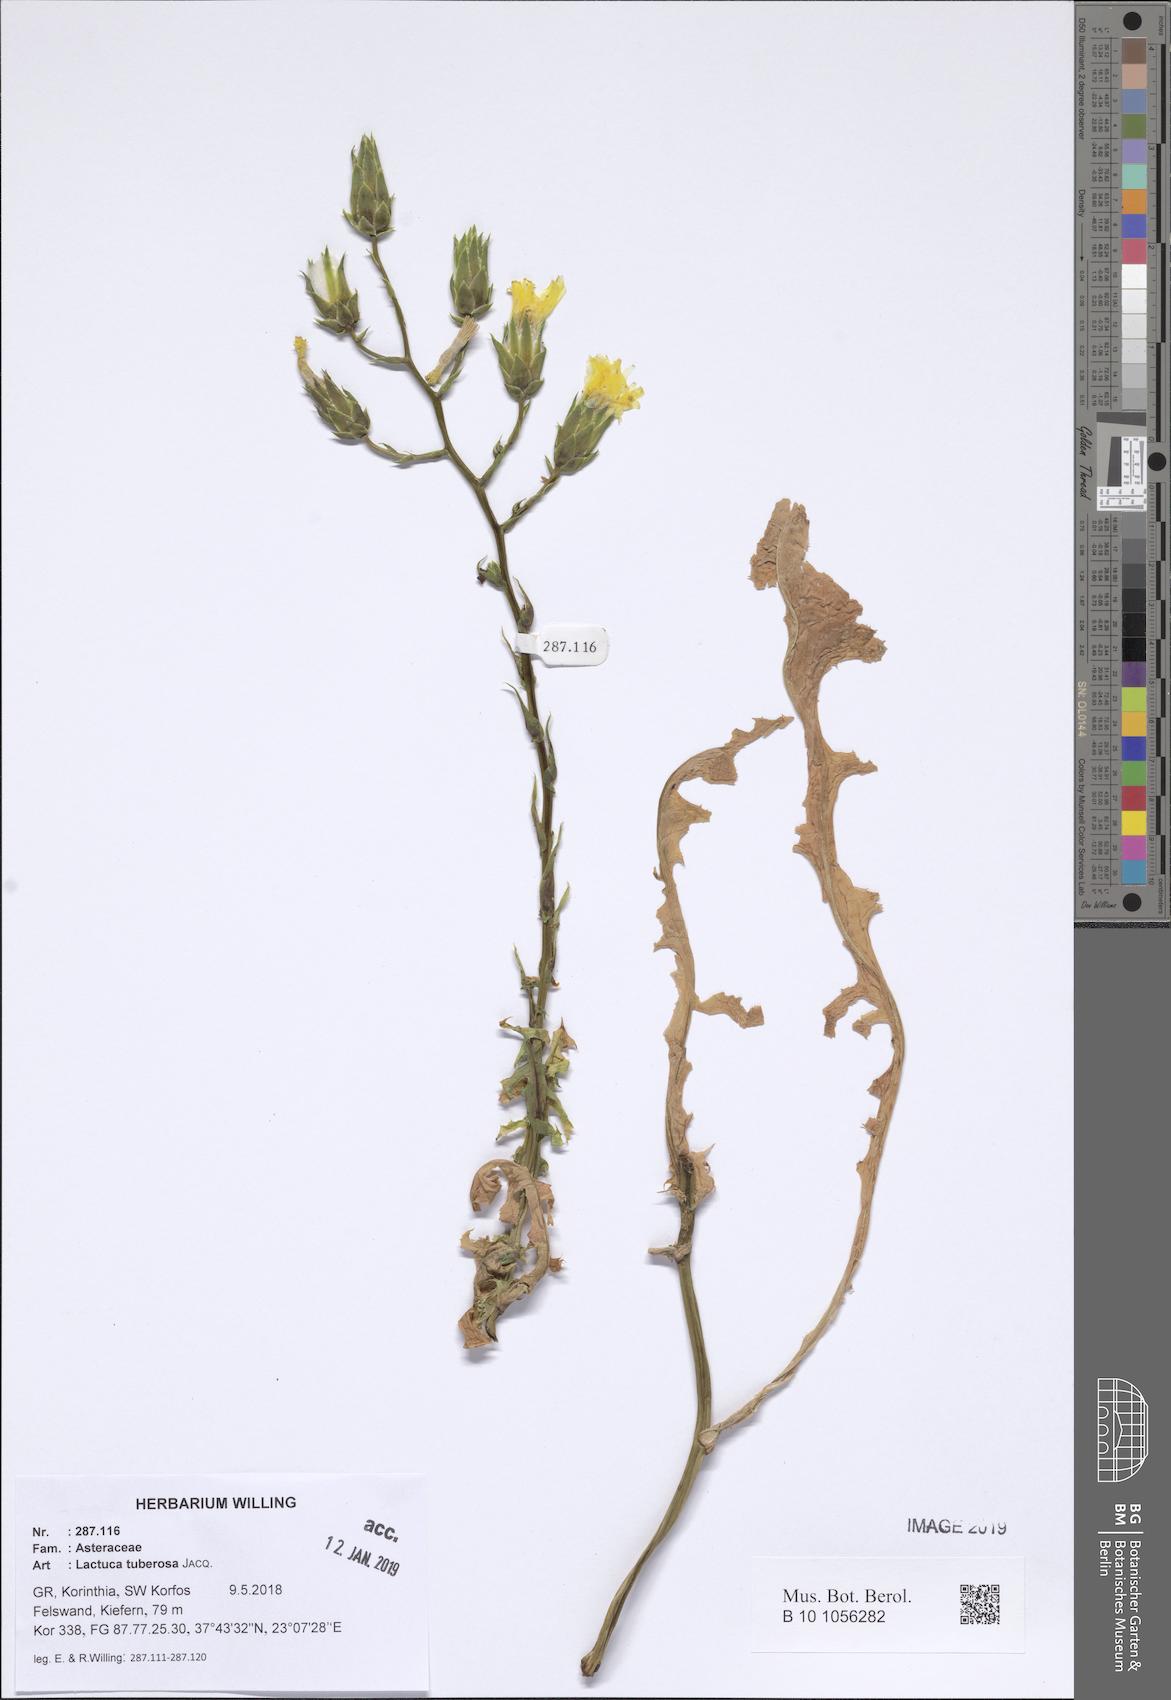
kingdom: Plantae
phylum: Tracheophyta
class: Magnoliopsida
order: Asterales
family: Asteraceae
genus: Lactuca
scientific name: Lactuca tuberosa
